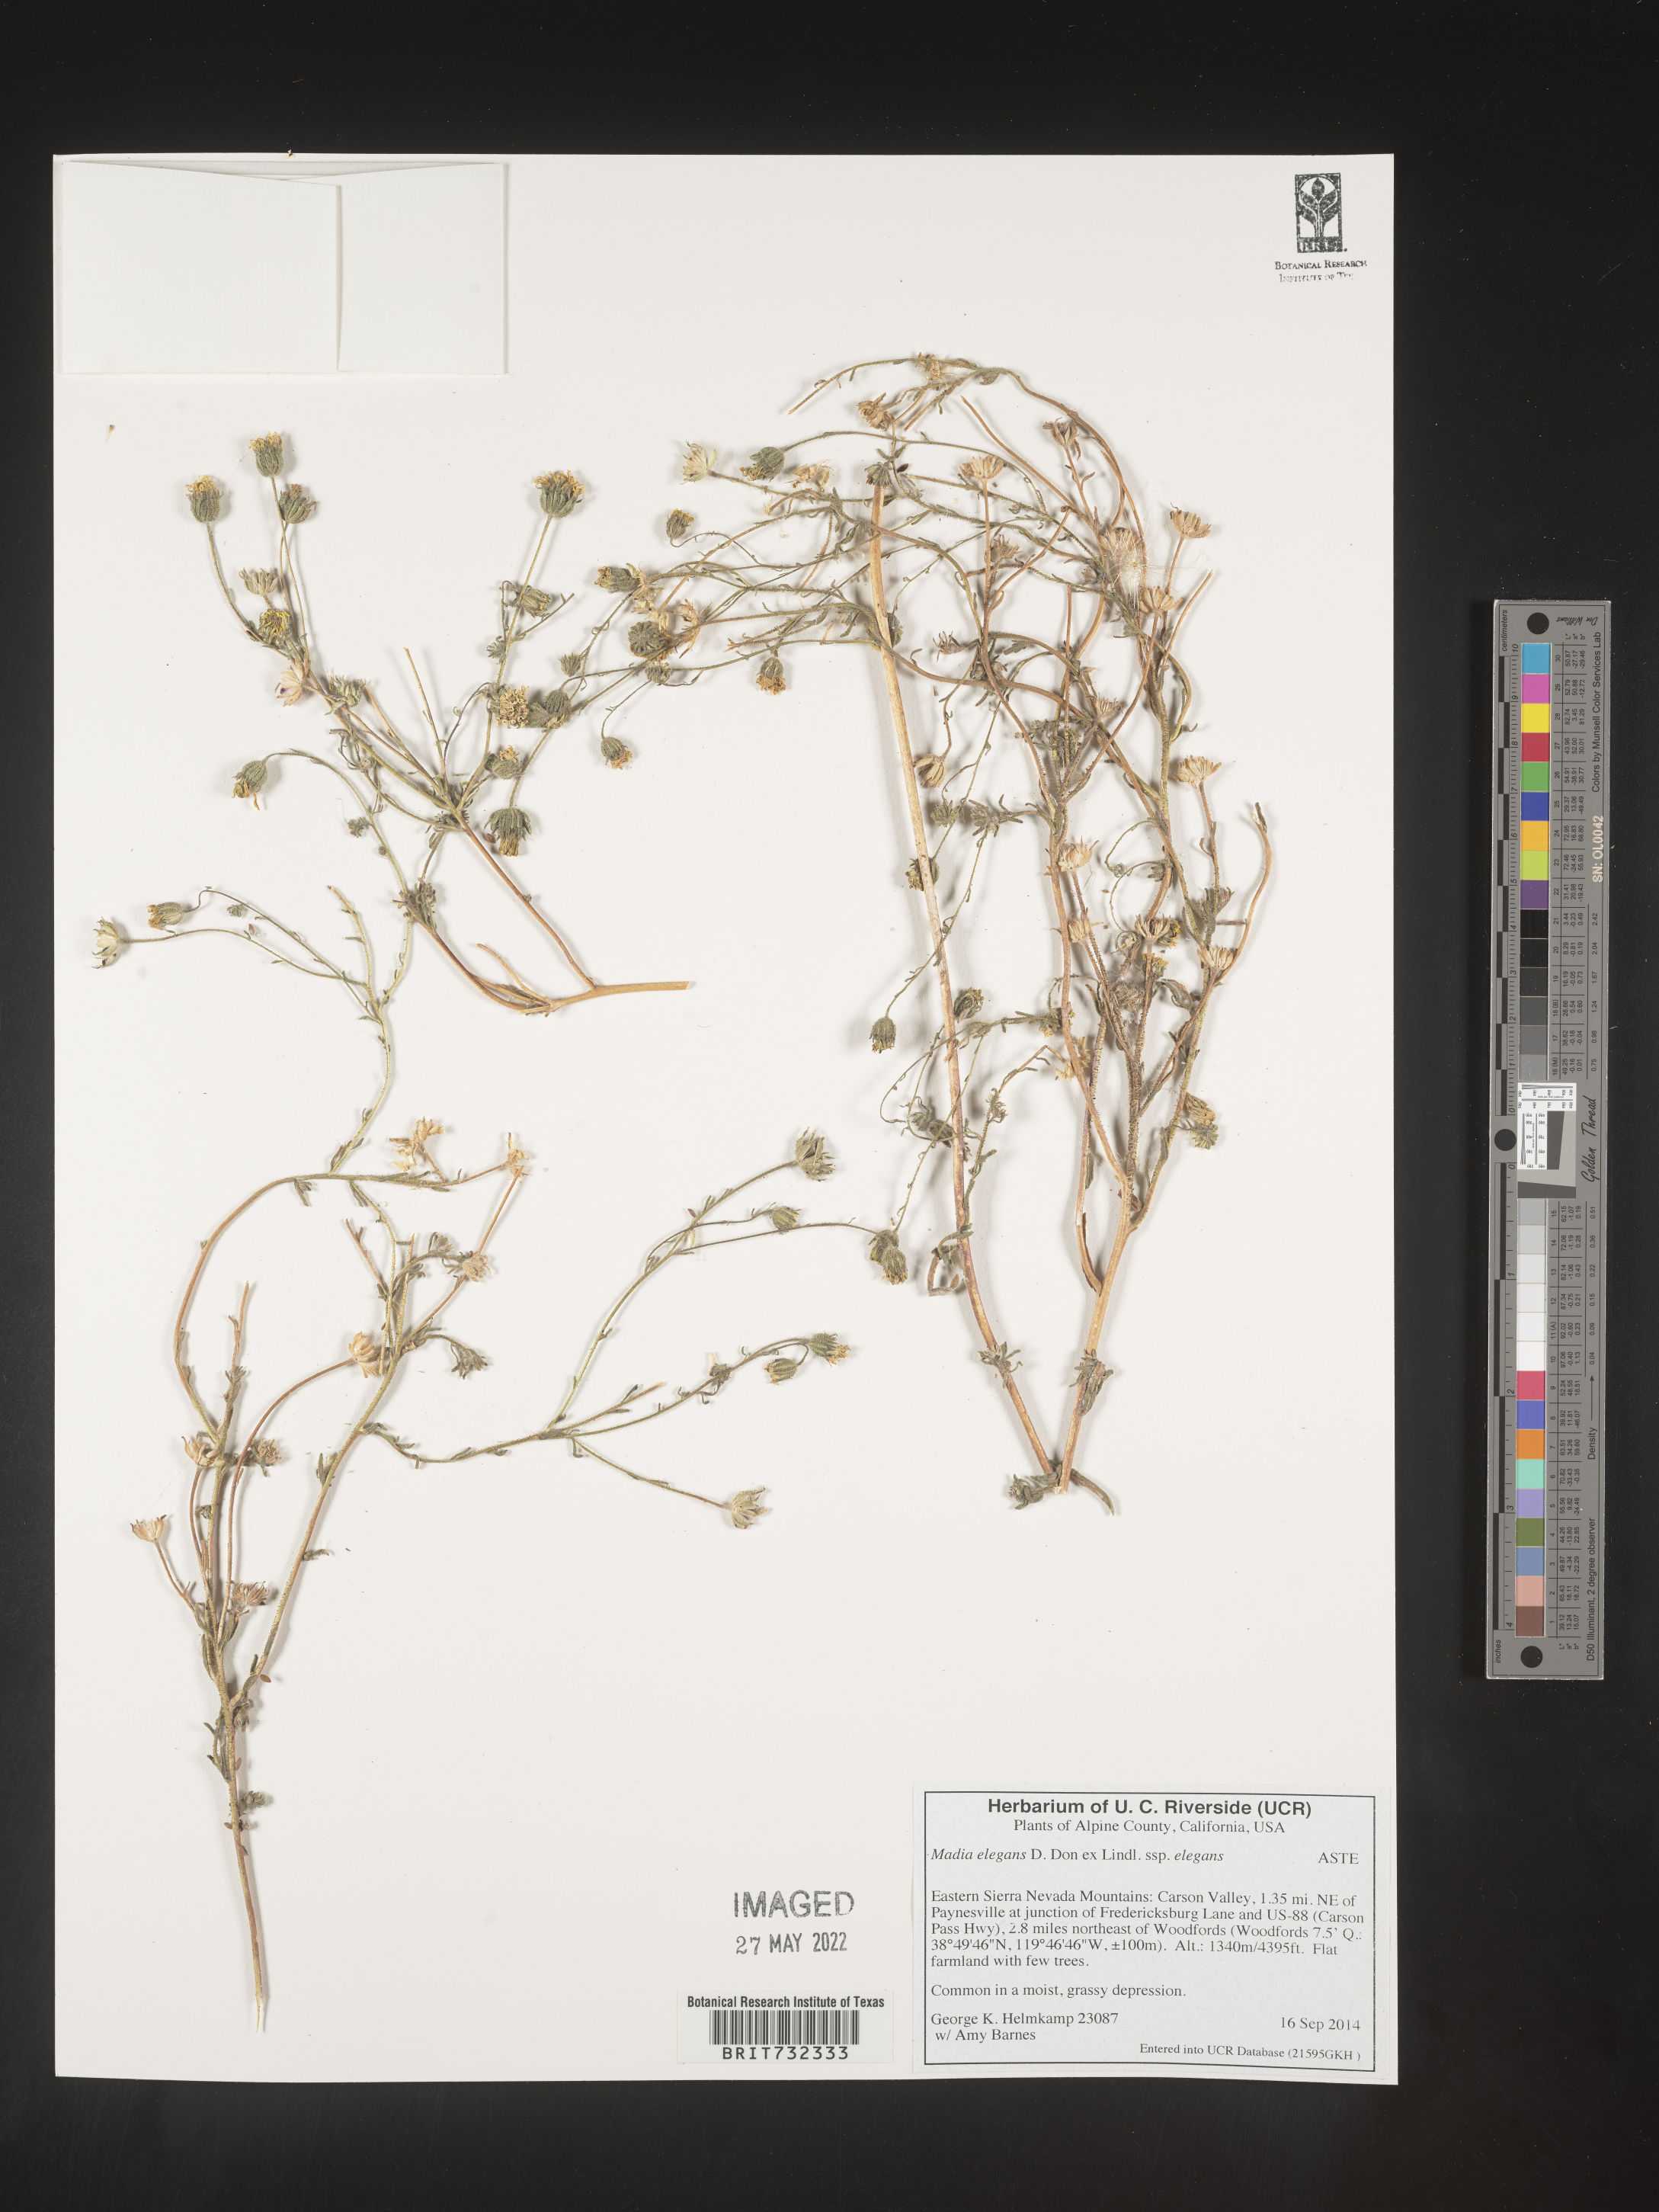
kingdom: Plantae
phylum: Tracheophyta
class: Magnoliopsida
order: Asterales
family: Asteraceae
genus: Madia
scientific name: Madia
